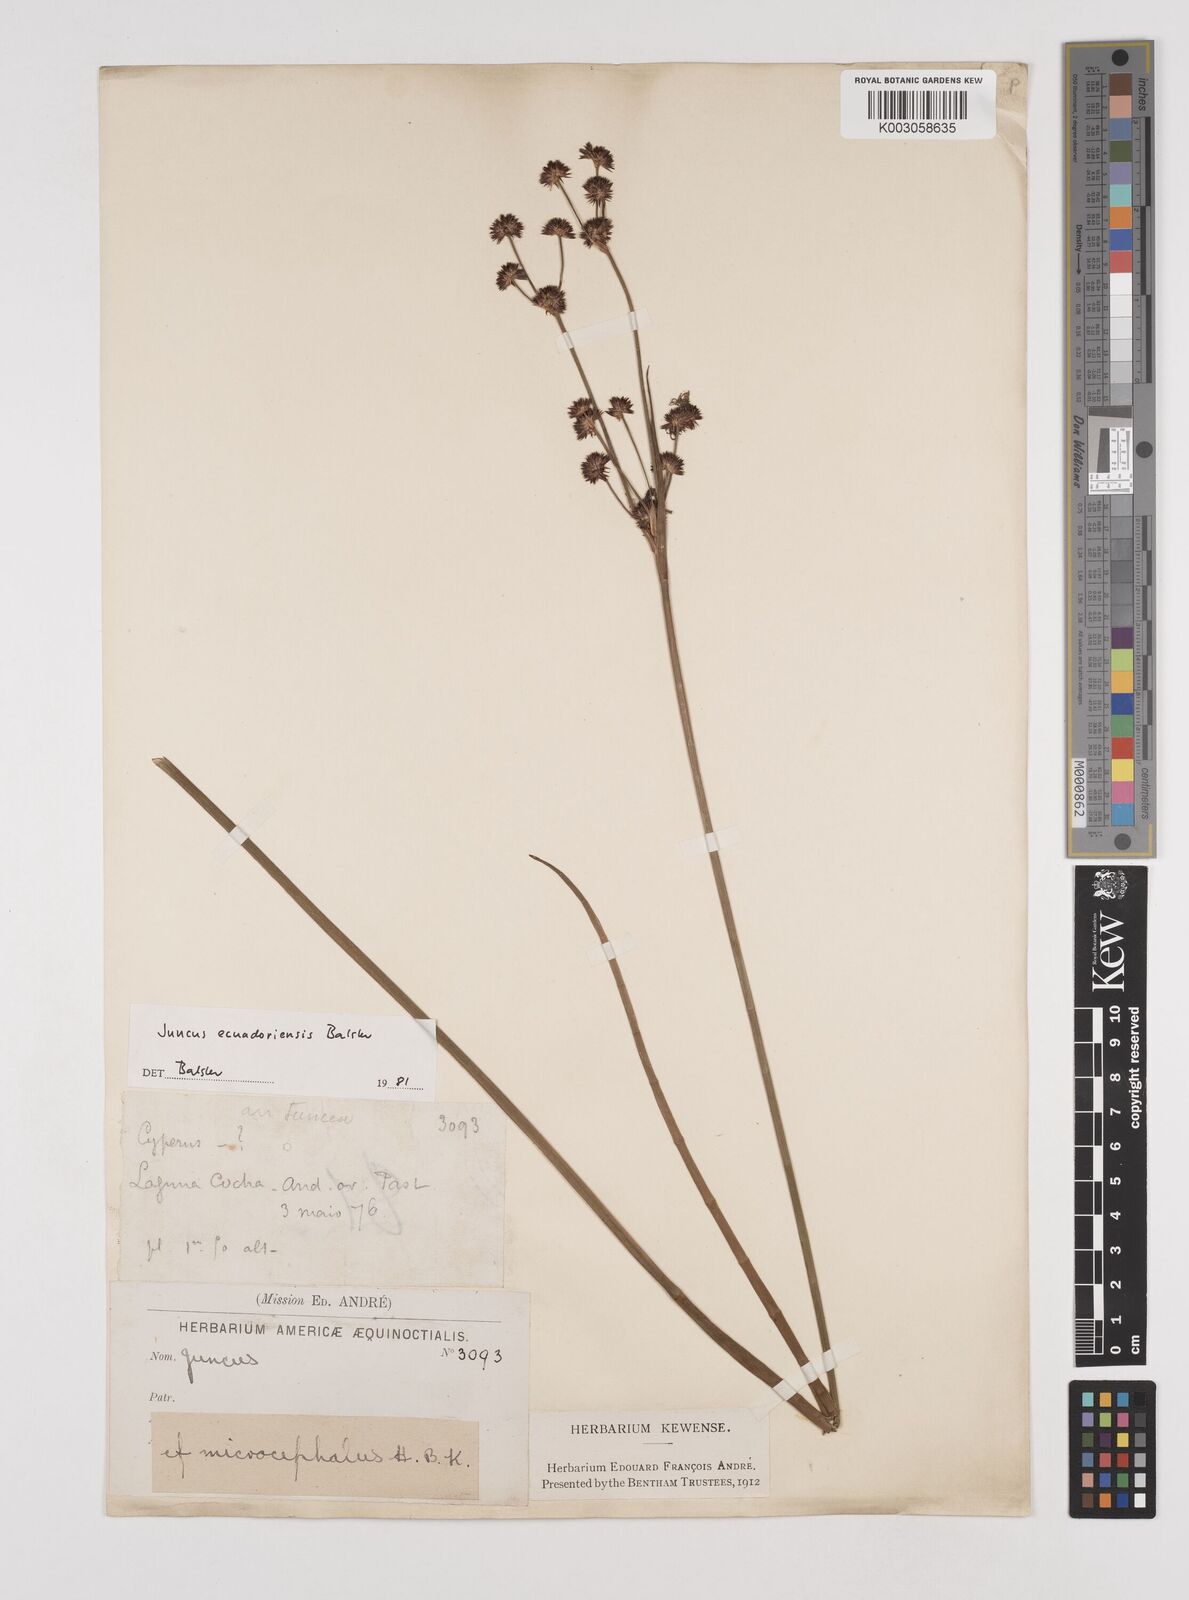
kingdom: Plantae
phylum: Tracheophyta
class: Liliopsida
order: Poales
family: Juncaceae
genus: Juncus
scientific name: Juncus ecuadoriensis
